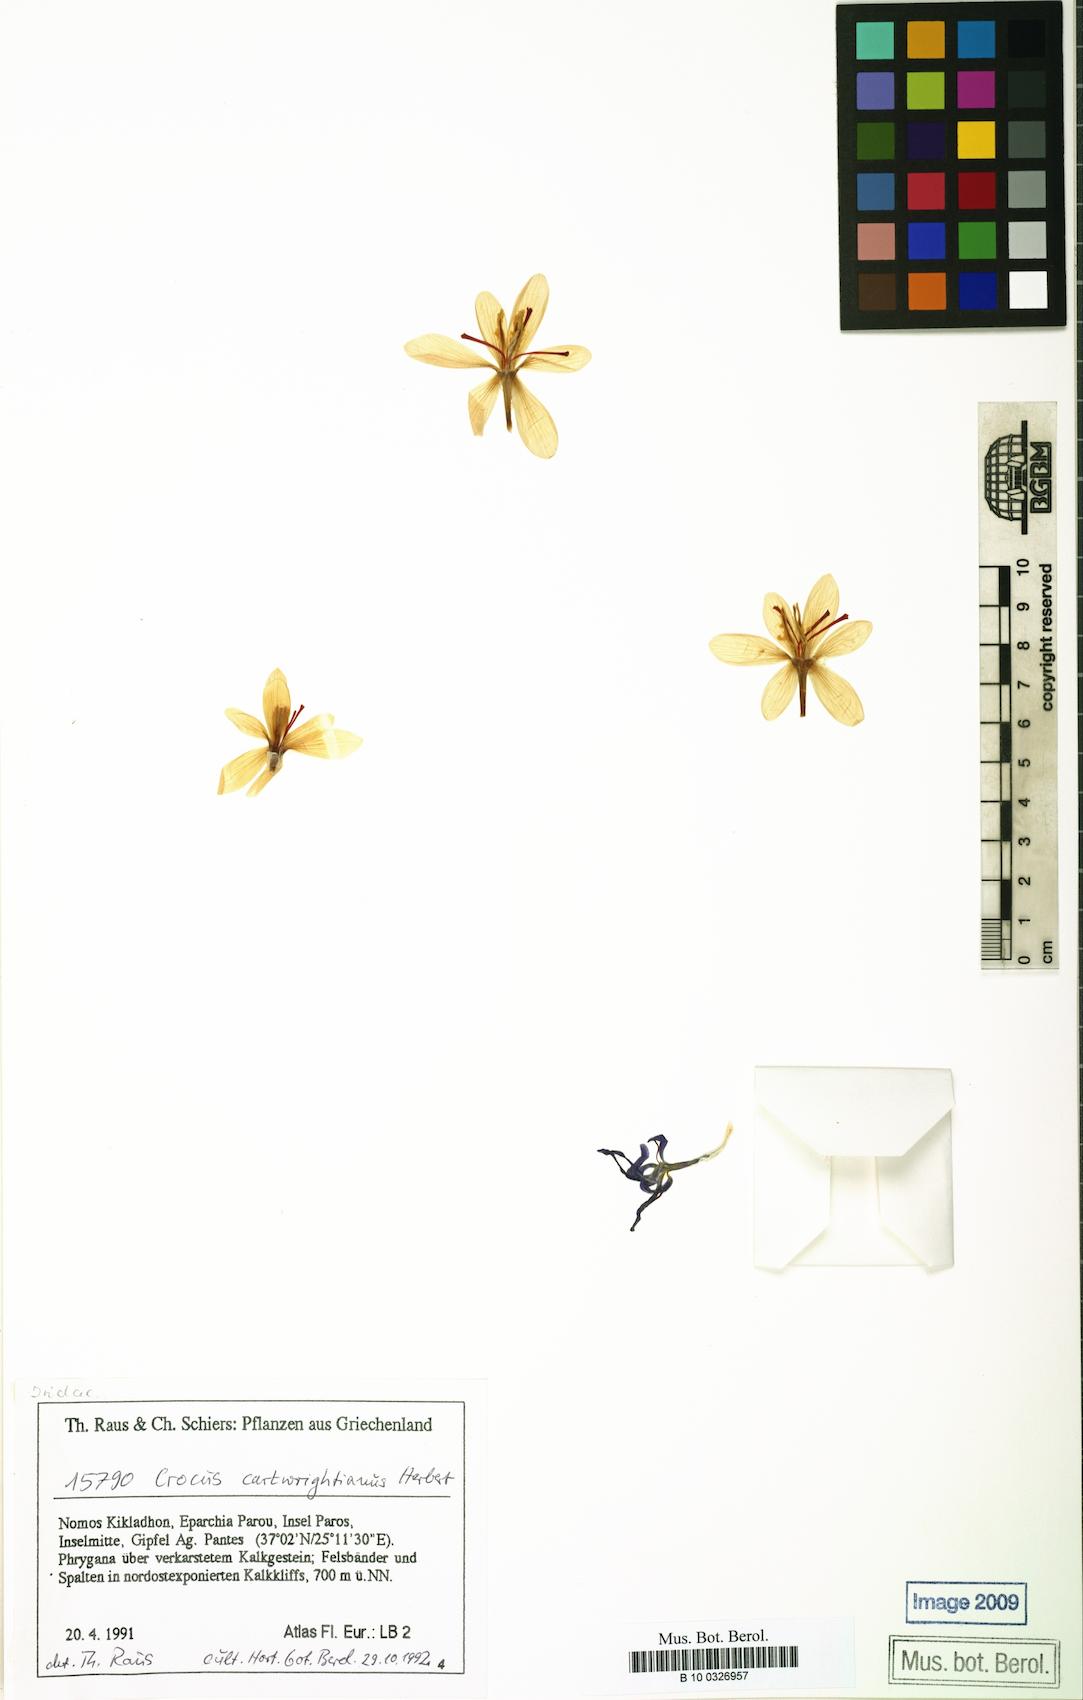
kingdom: Plantae
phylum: Tracheophyta
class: Liliopsida
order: Asparagales
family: Iridaceae
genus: Crocus
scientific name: Crocus cartwrightianus
